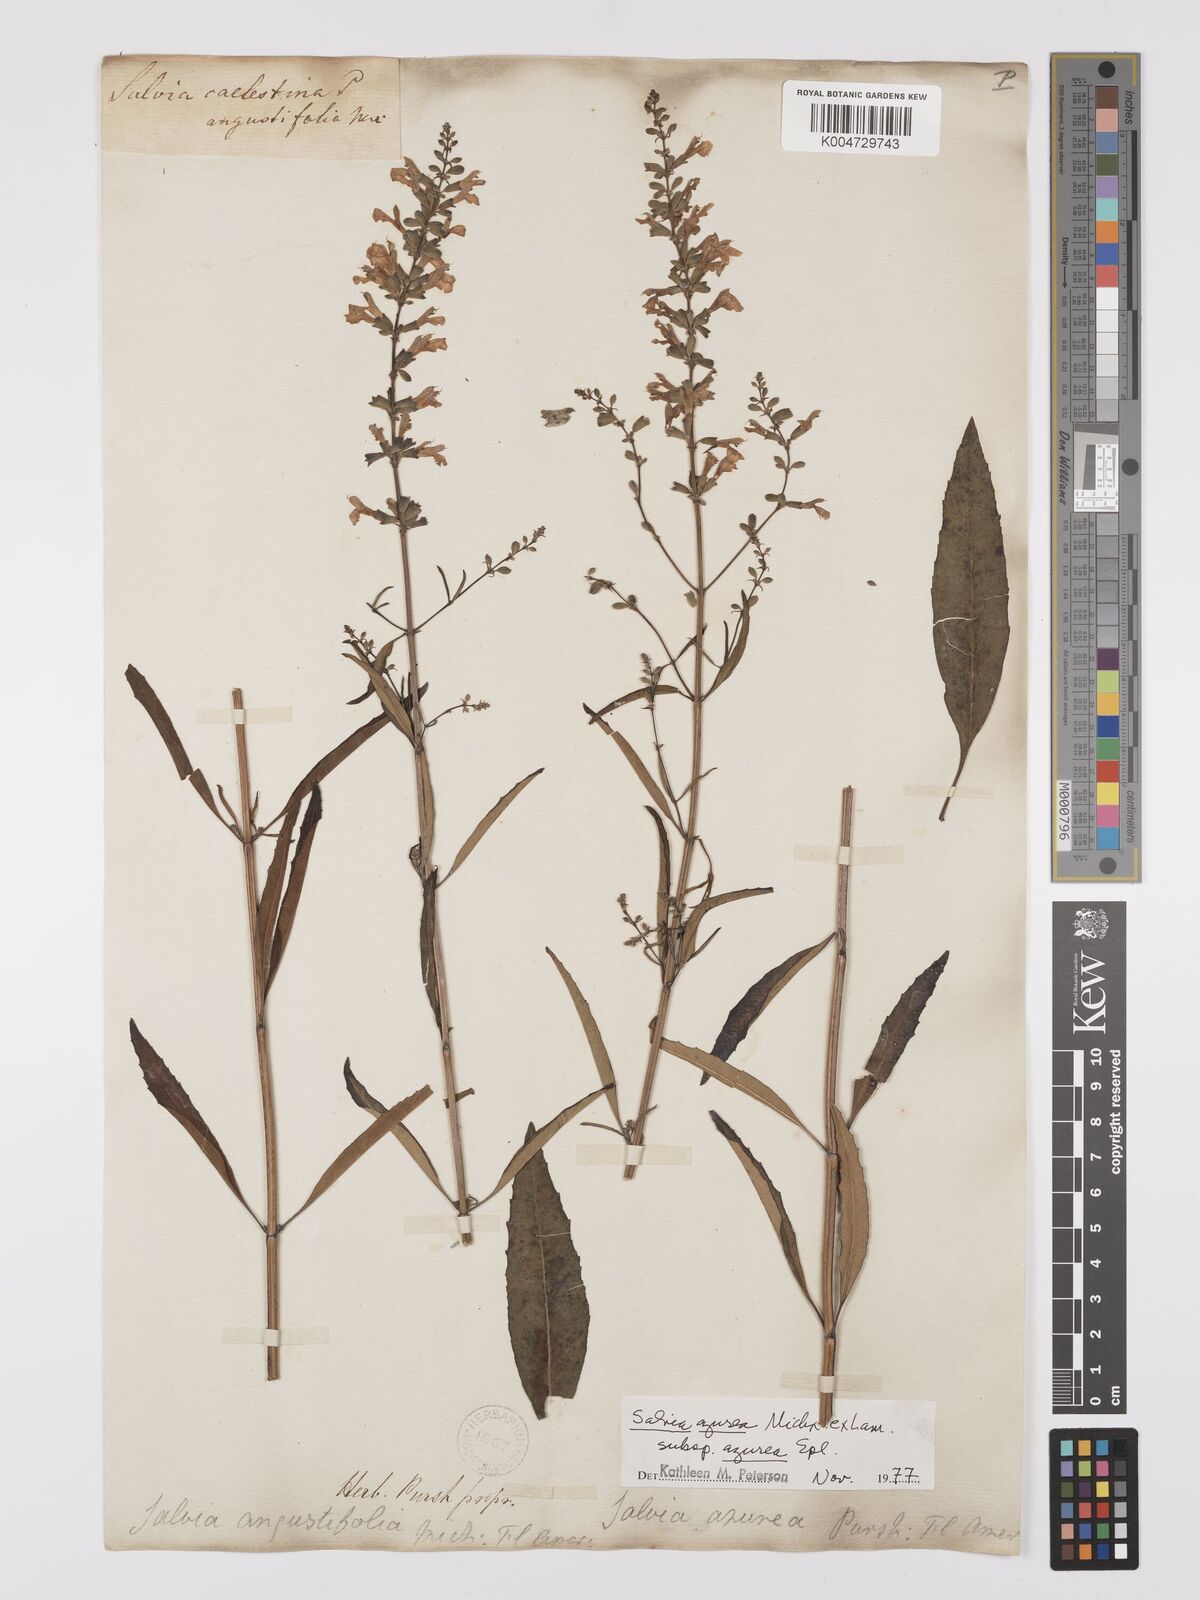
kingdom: Plantae
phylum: Tracheophyta
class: Magnoliopsida
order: Lamiales
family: Lamiaceae
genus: Salvia
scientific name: Salvia azurea
